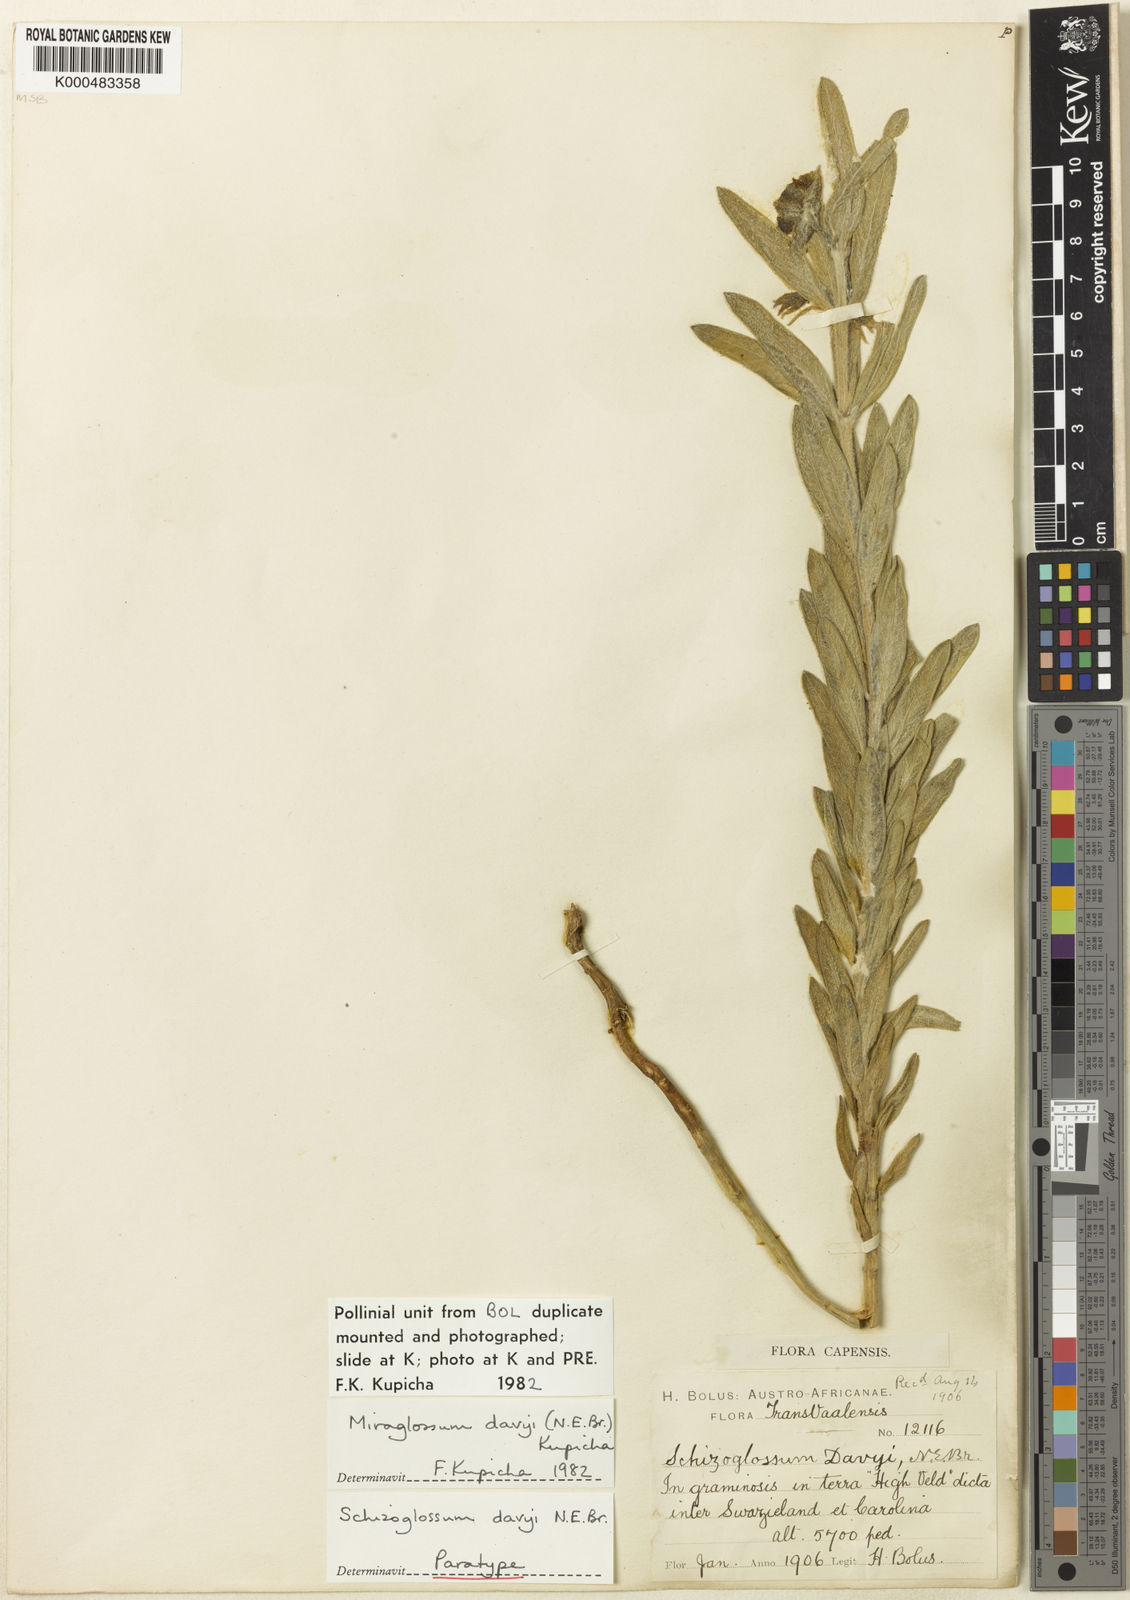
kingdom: Plantae
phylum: Tracheophyta
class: Magnoliopsida
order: Gentianales
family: Apocynaceae
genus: Miraglossum
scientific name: Miraglossum davyi
